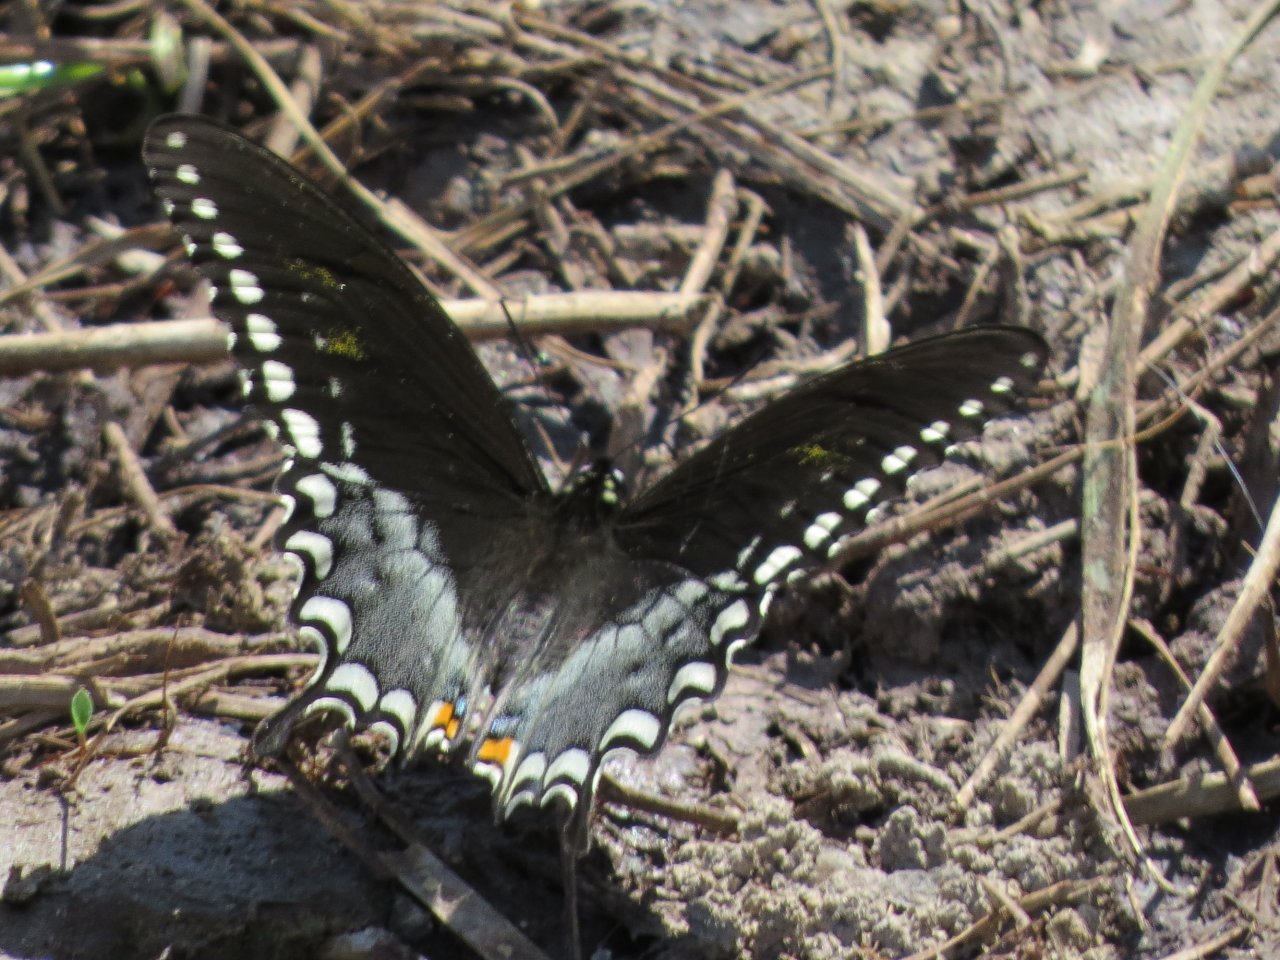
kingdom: Animalia
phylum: Arthropoda
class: Insecta
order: Lepidoptera
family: Papilionidae
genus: Pterourus
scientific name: Pterourus troilus
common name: Spicebush Swallowtail
